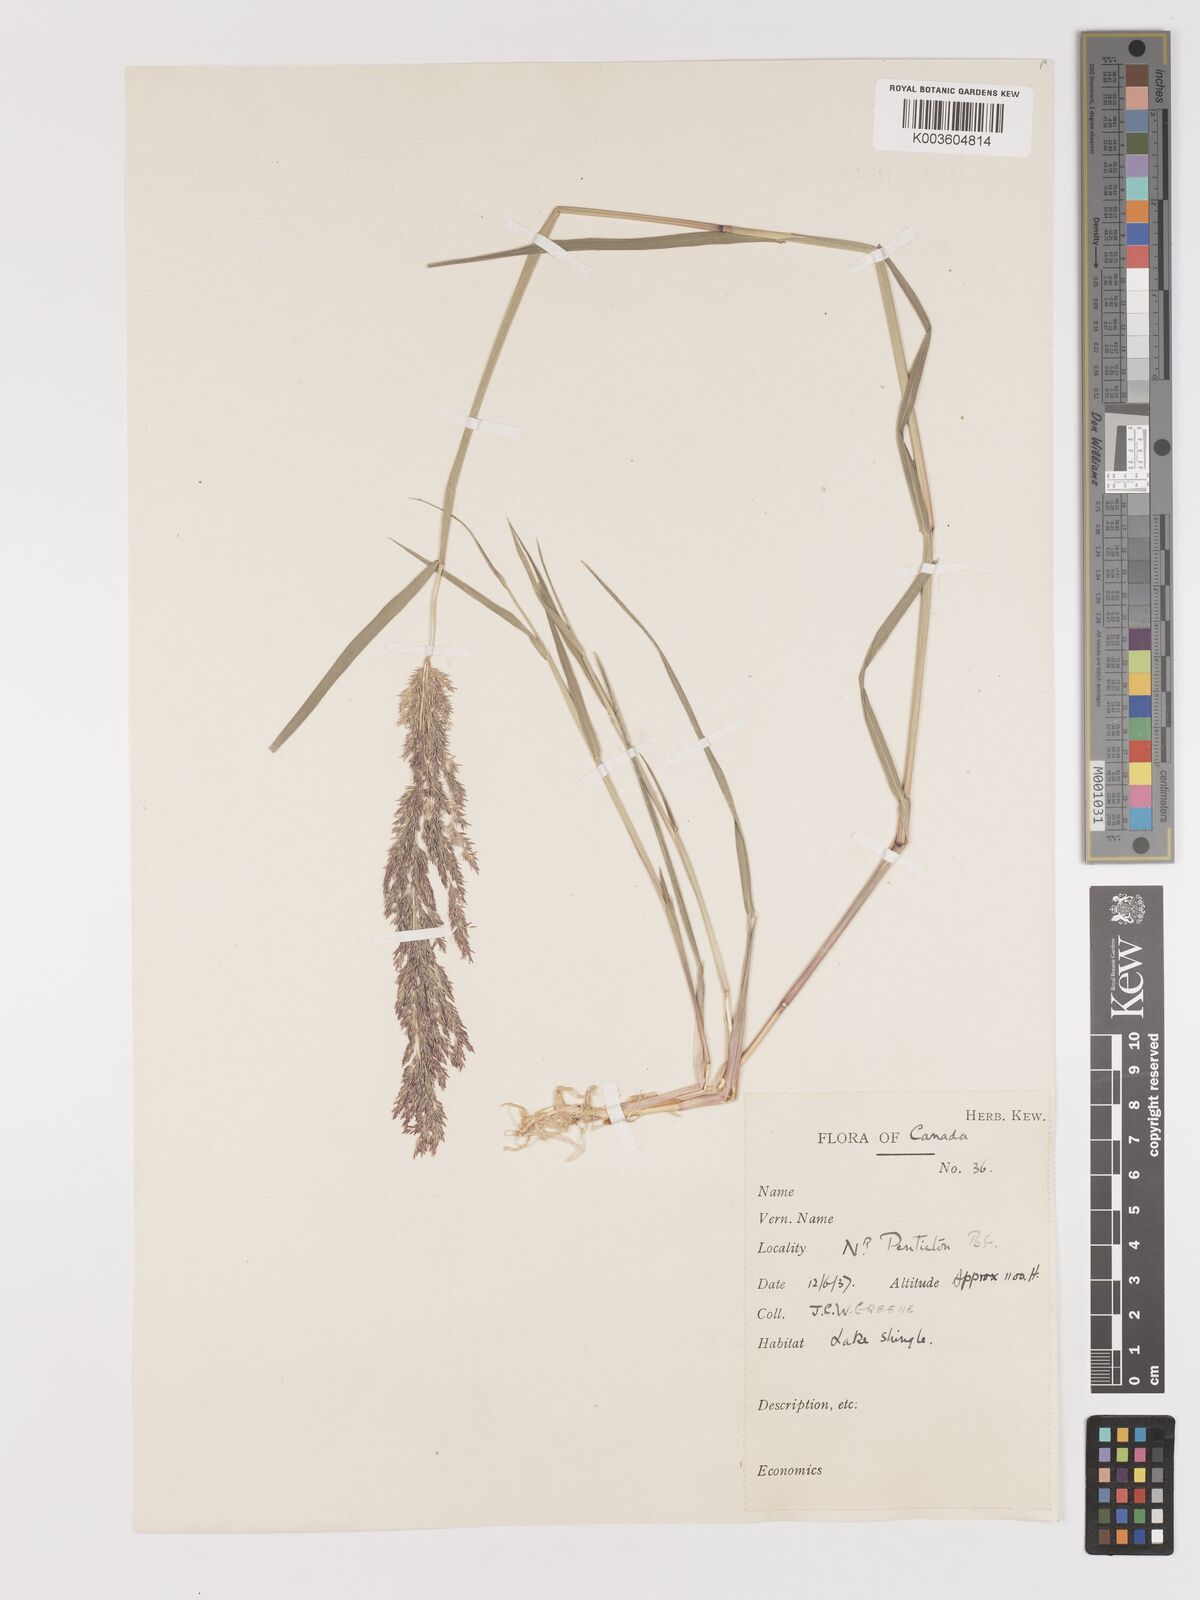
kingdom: Plantae
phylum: Tracheophyta
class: Liliopsida
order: Poales
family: Poaceae
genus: Agrostis
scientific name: Agrostis
